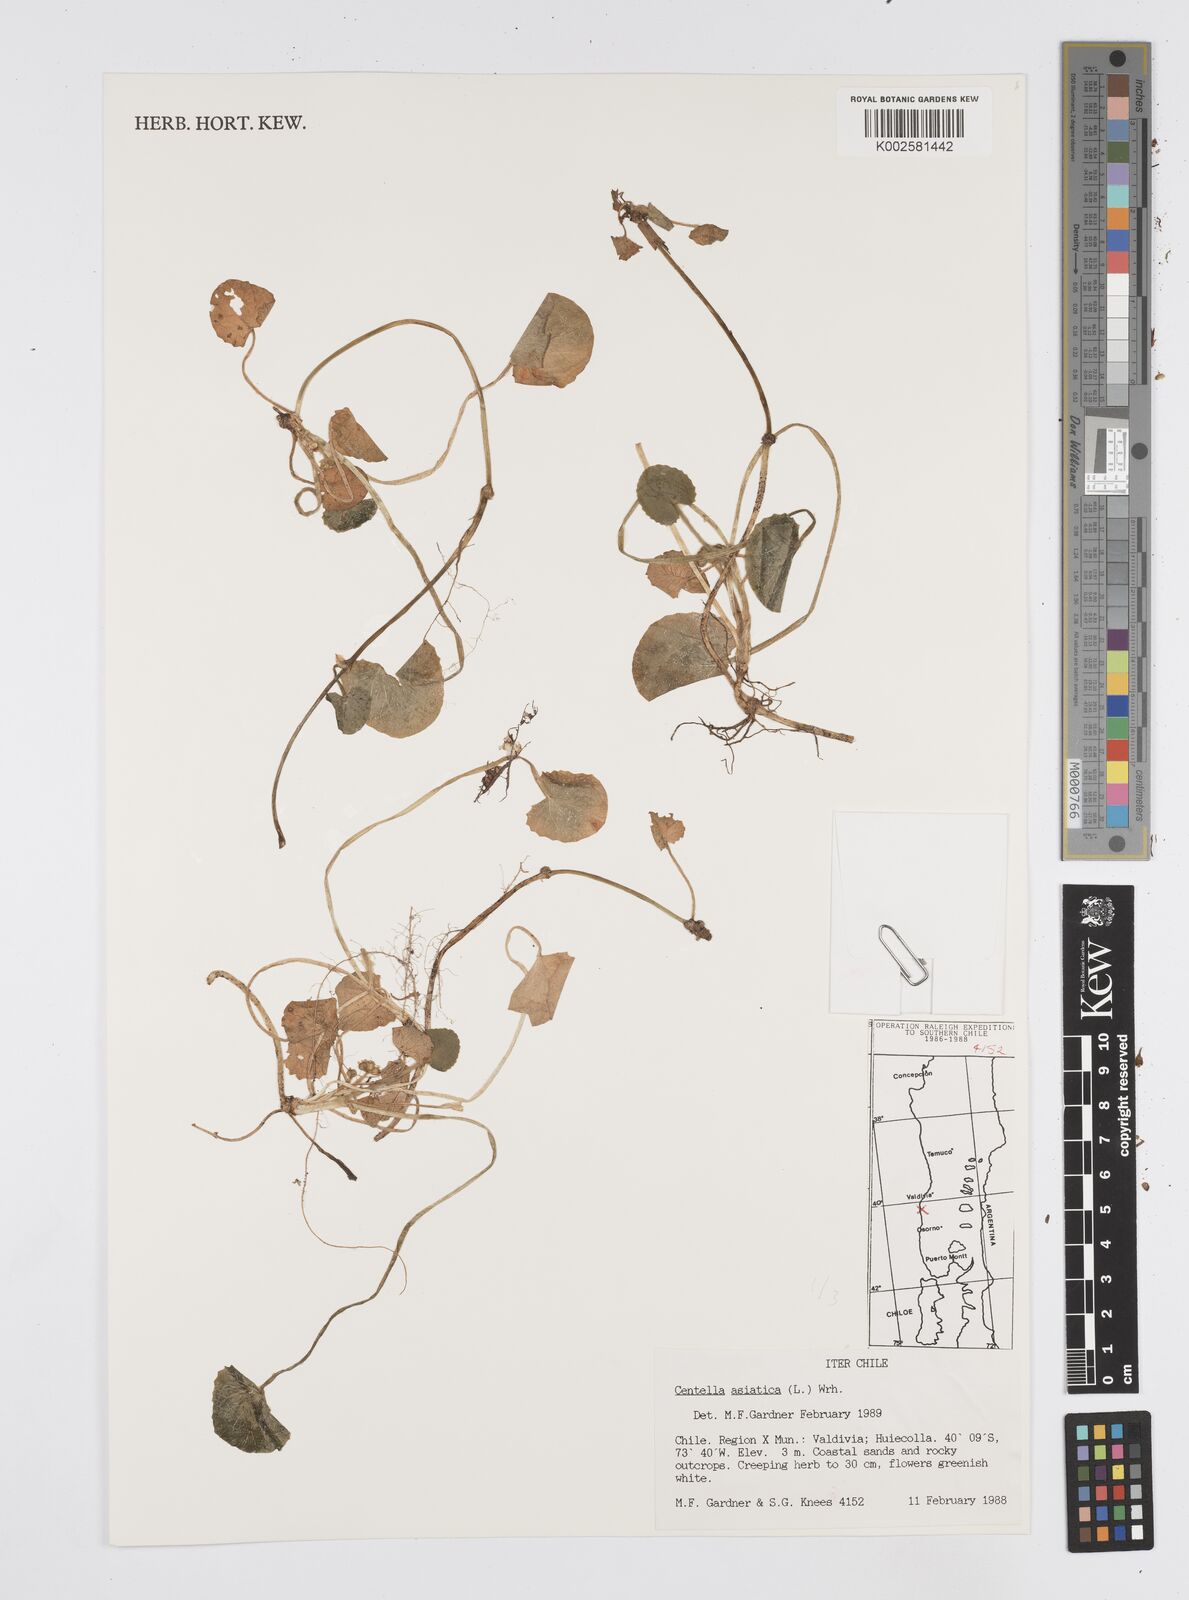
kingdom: Plantae
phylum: Tracheophyta
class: Magnoliopsida
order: Apiales
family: Apiaceae
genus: Centella
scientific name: Centella asiatica
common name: Spadeleaf
